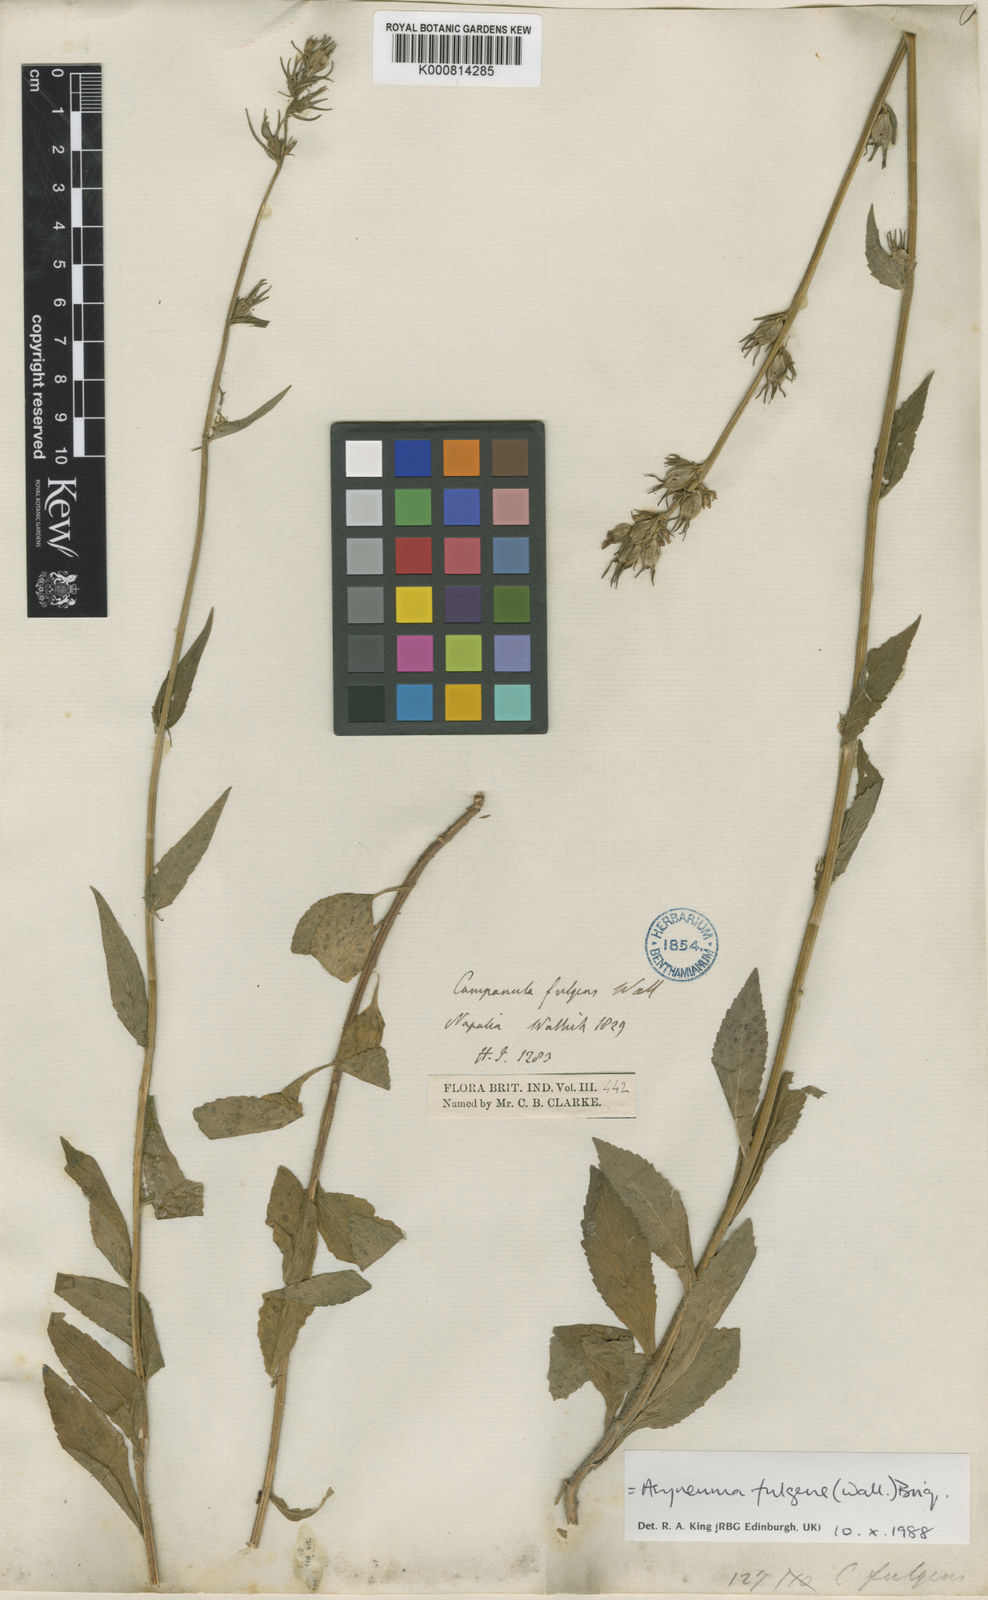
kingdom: Plantae
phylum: Tracheophyta
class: Magnoliopsida
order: Asterales
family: Campanulaceae
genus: Asyneuma
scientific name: Asyneuma fulgens
